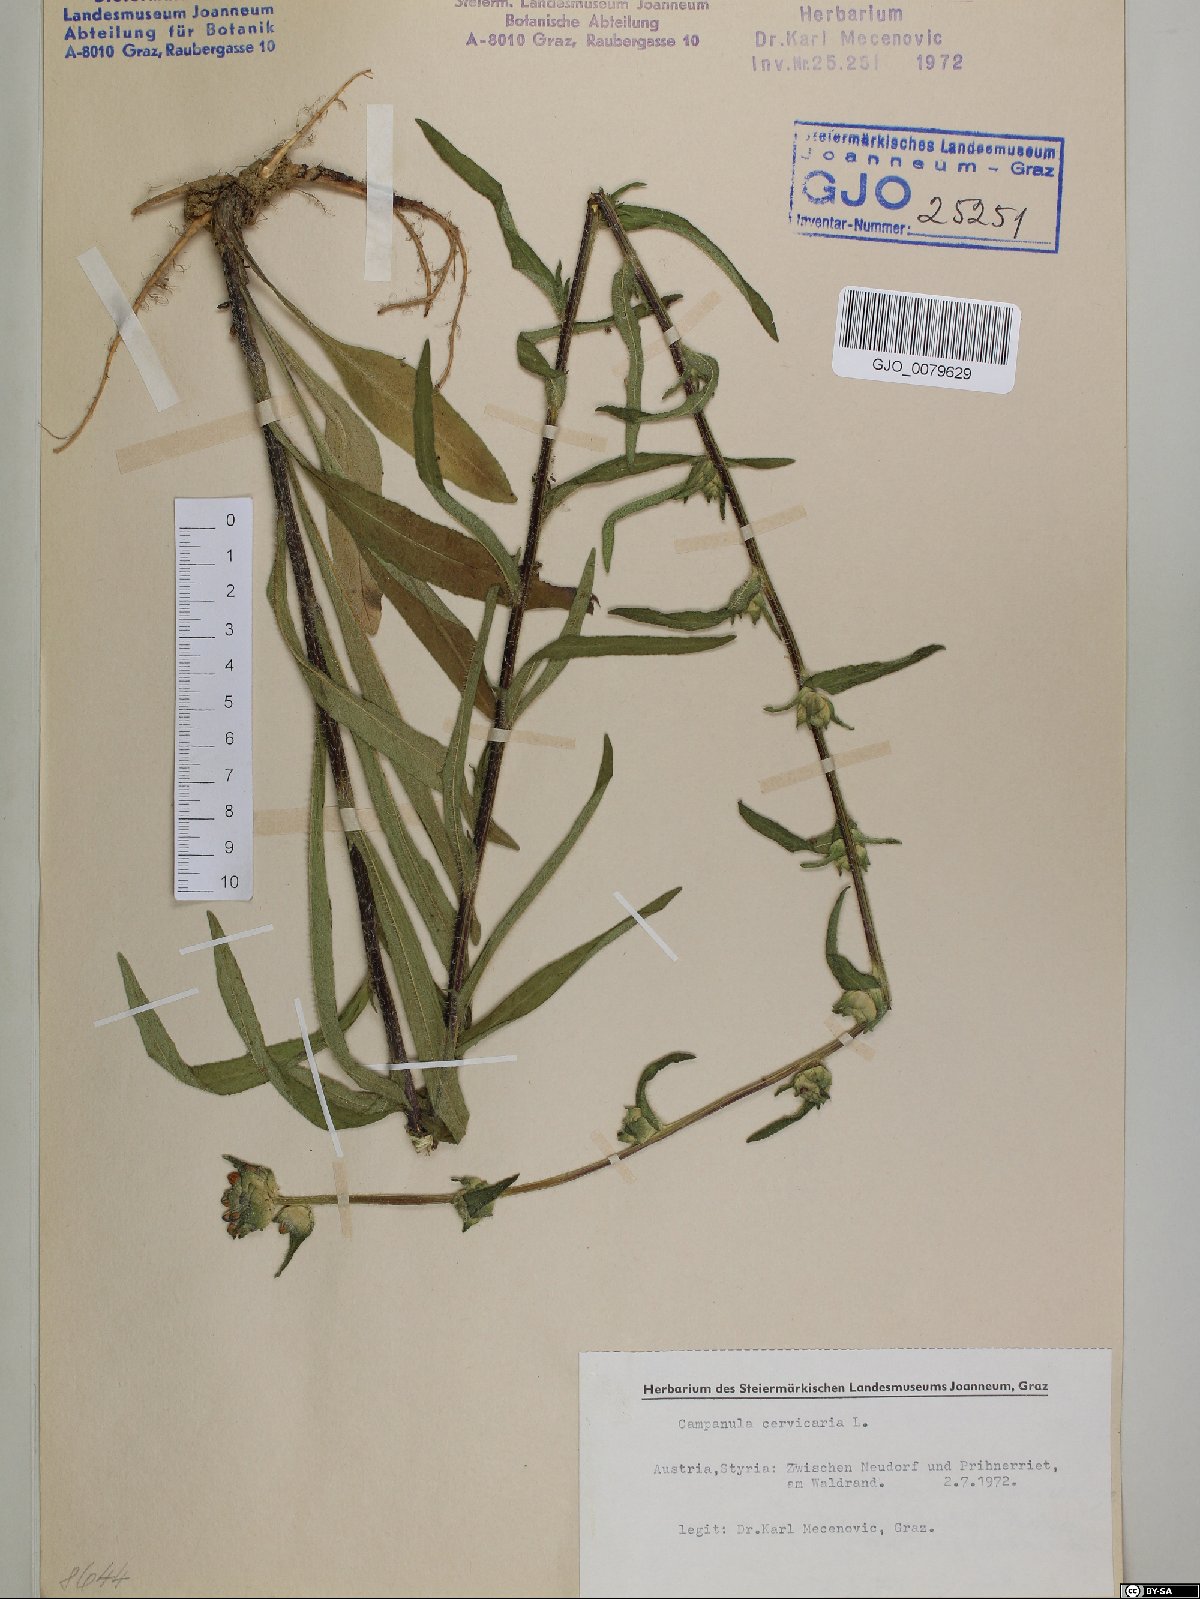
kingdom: Plantae
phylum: Tracheophyta
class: Magnoliopsida
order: Asterales
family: Campanulaceae
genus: Campanula
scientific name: Campanula cervicaria
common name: Bristly bellflower
